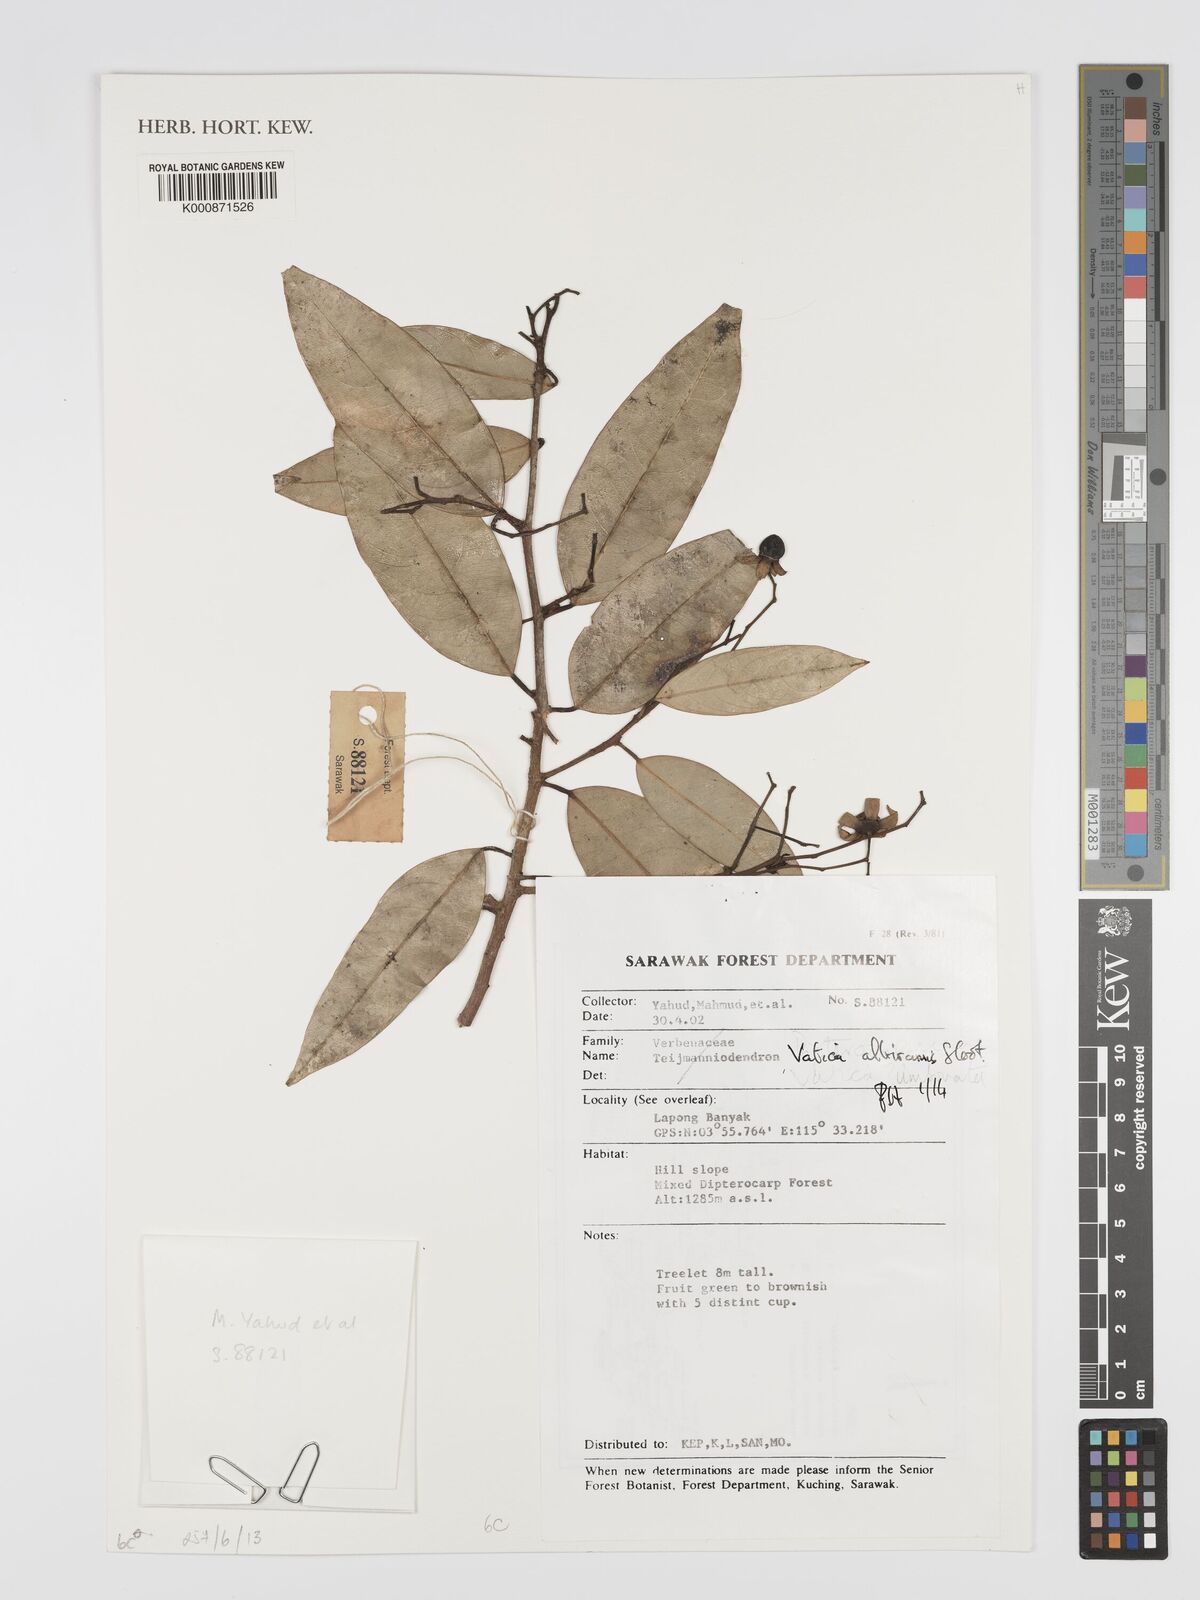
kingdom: Plantae
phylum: Tracheophyta
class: Magnoliopsida
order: Malvales
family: Dipterocarpaceae
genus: Vatica
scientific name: Vatica albiramis
